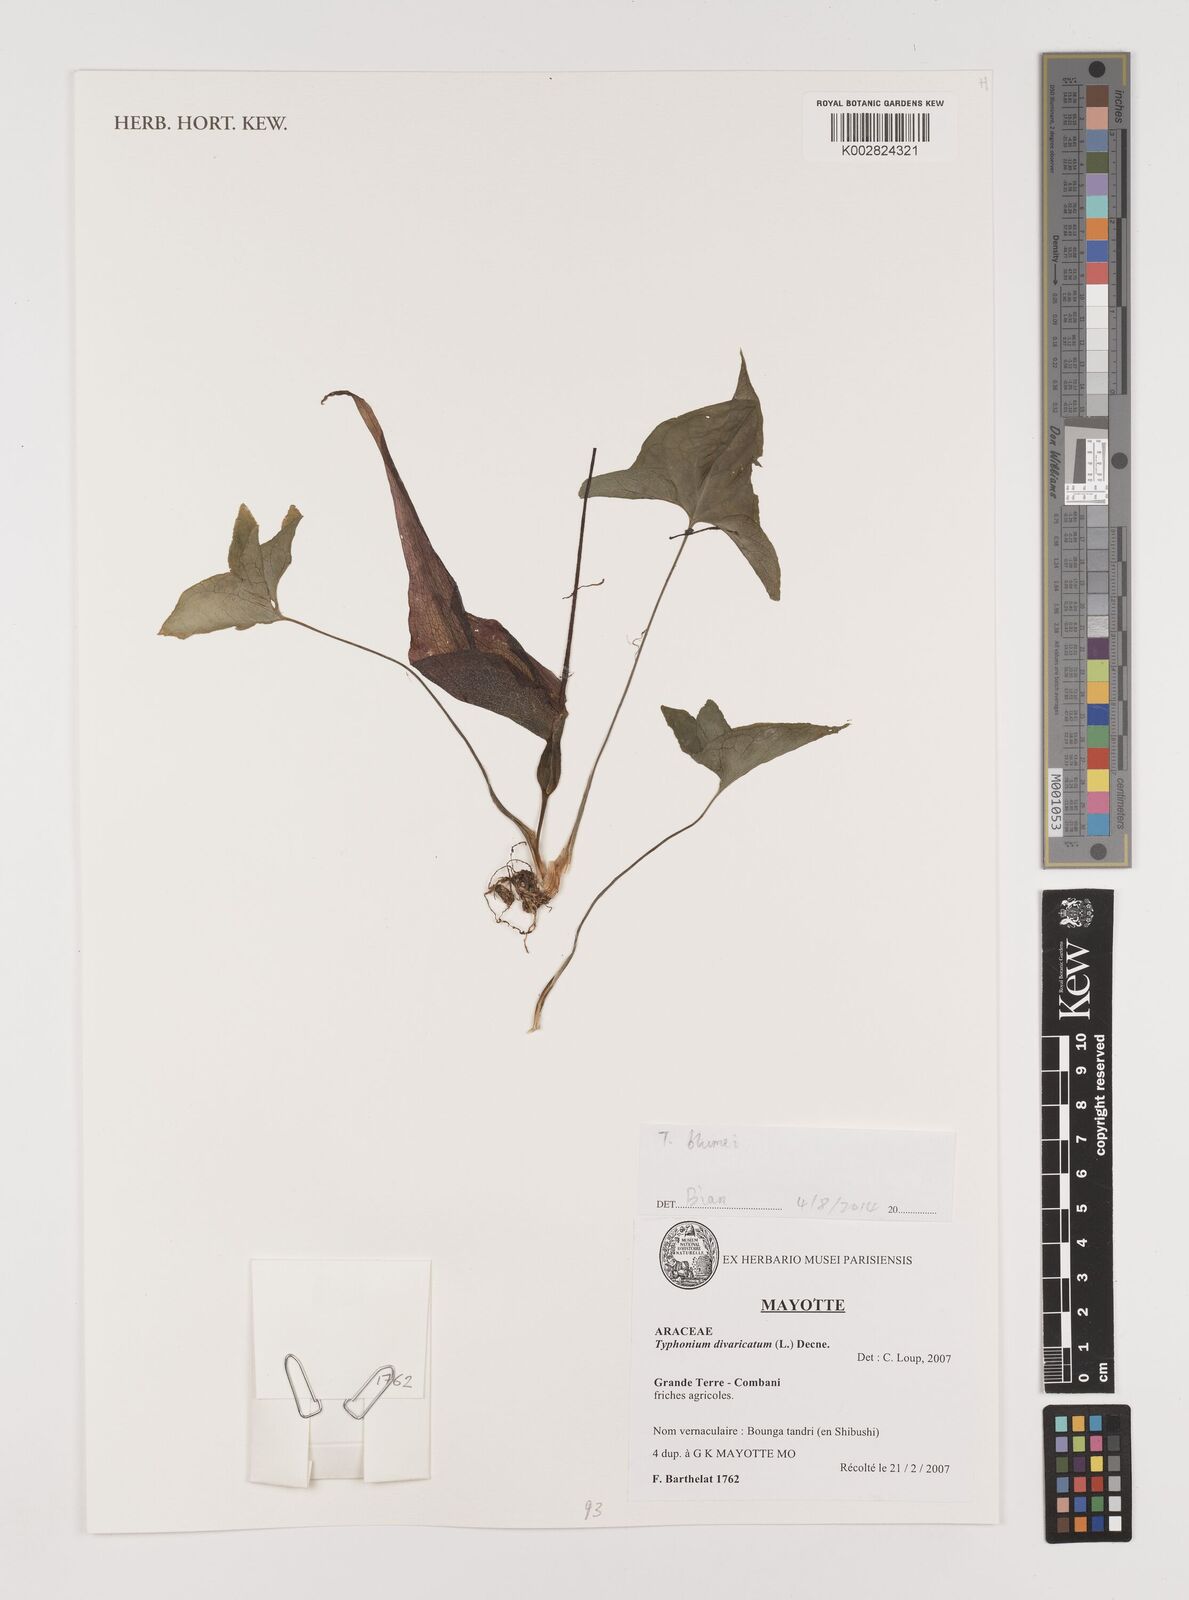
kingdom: Plantae
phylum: Tracheophyta
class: Liliopsida
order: Alismatales
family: Araceae
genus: Typhonium
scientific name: Typhonium blumei
